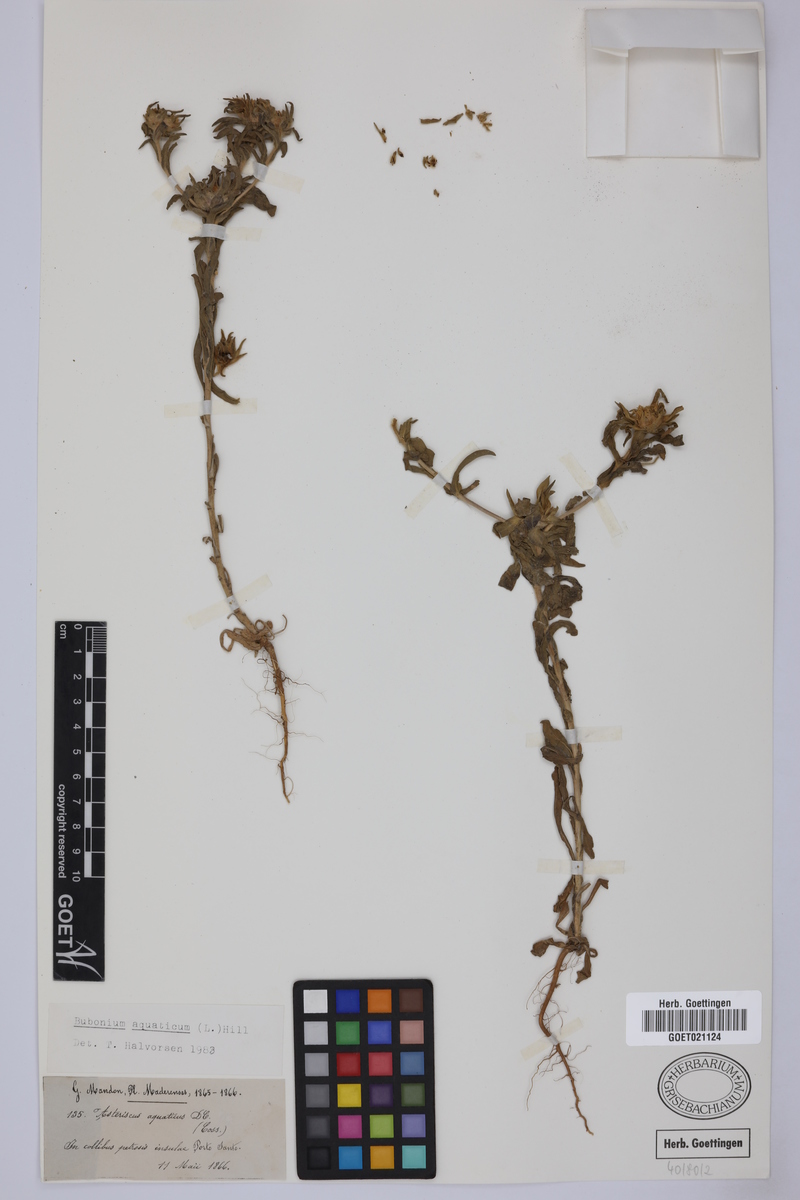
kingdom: Plantae
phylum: Tracheophyta
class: Magnoliopsida
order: Asterales
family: Asteraceae
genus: Asteriscus
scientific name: Asteriscus aquaticus
